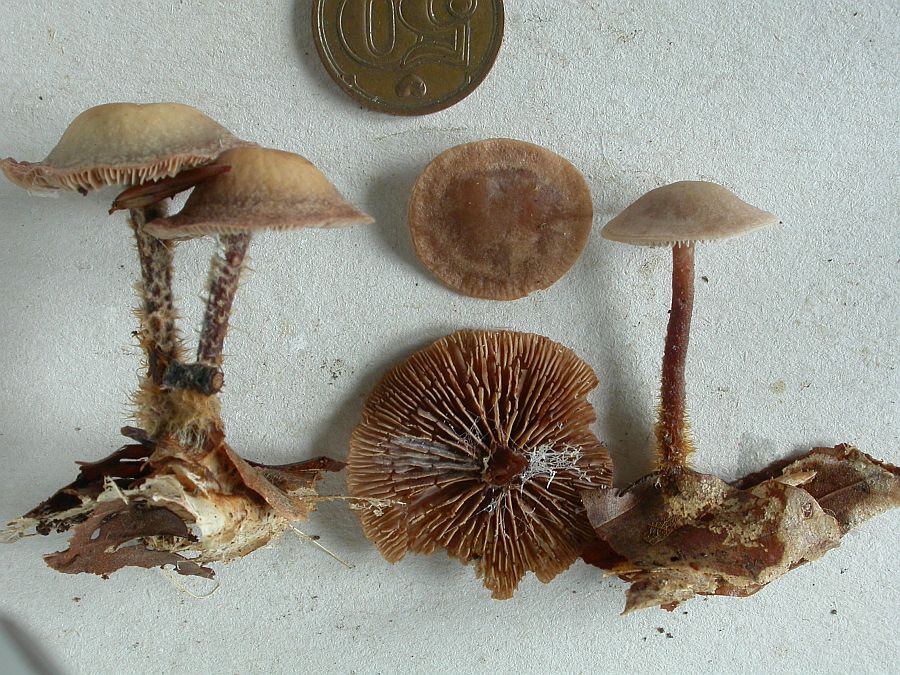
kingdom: Fungi
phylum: Basidiomycota
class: Agaricomycetes
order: Agaricales
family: Omphalotaceae
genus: Gymnopus
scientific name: Gymnopus fuscopurpureus
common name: purpurbrun fladhat
